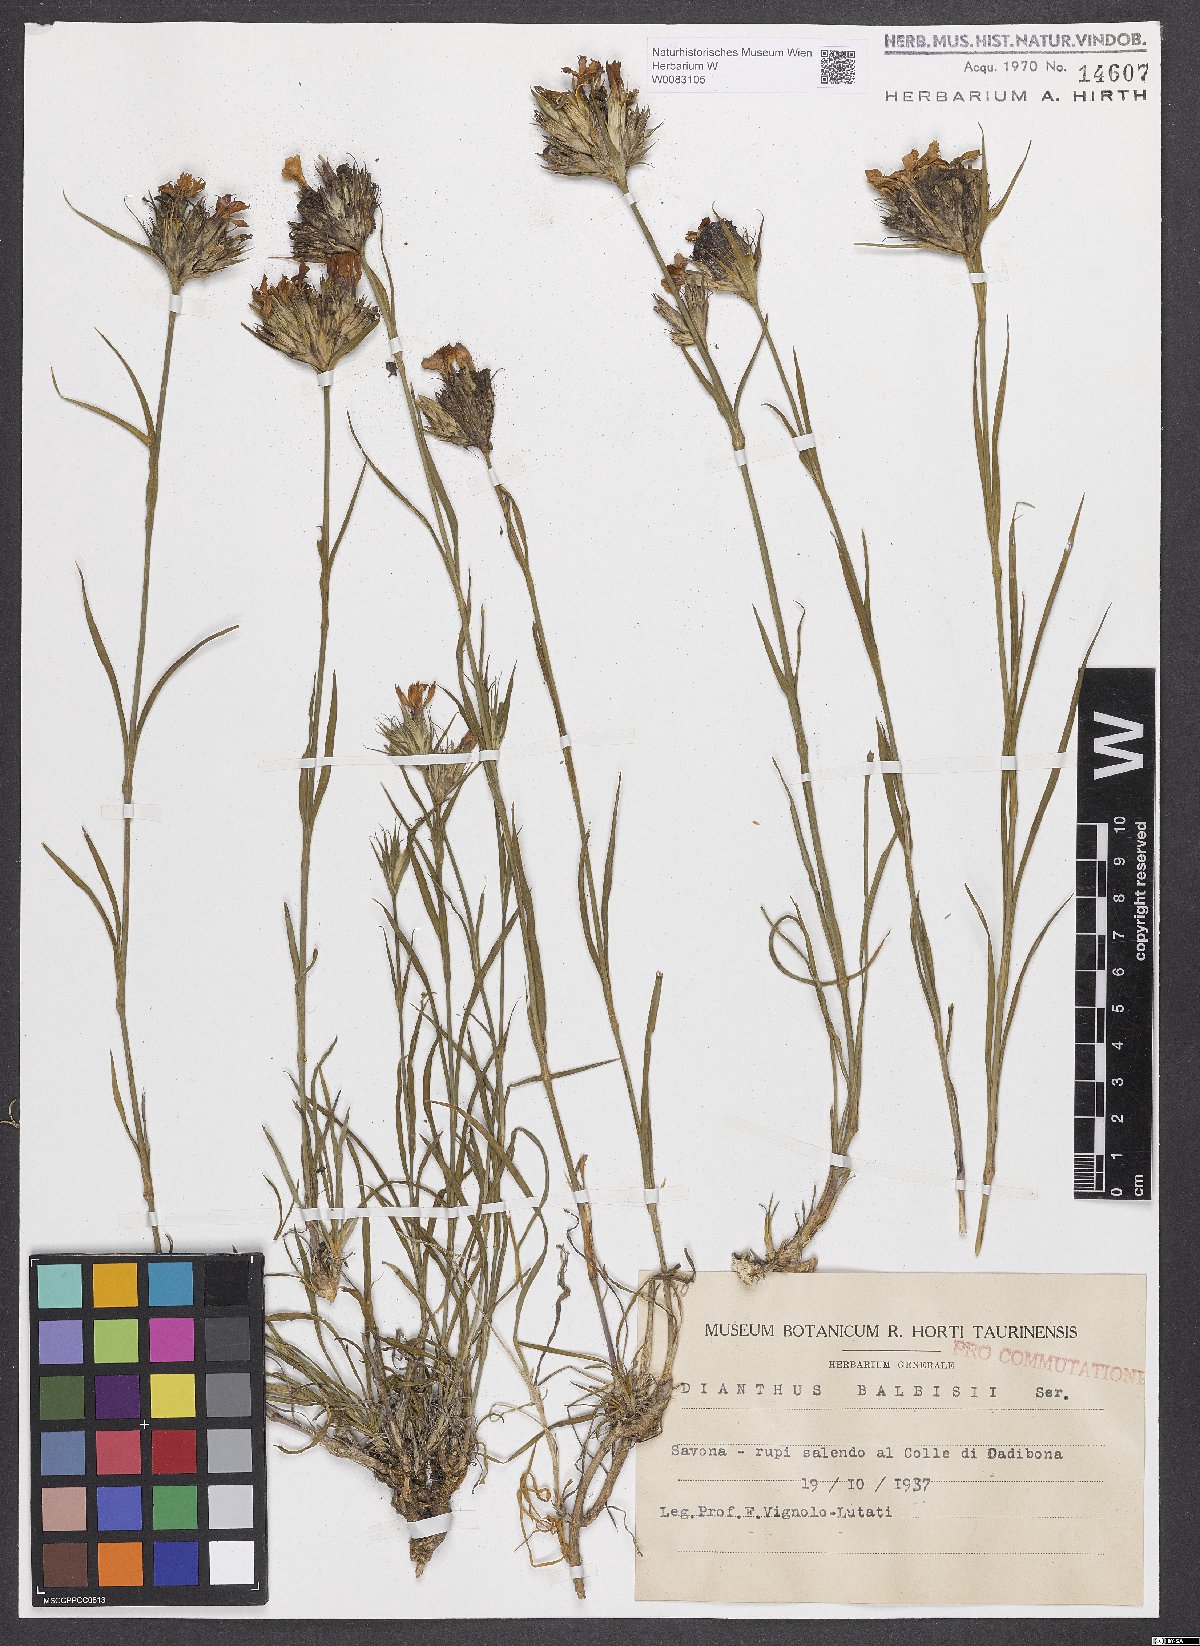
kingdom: Plantae
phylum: Tracheophyta
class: Magnoliopsida
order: Caryophyllales
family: Caryophyllaceae
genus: Dianthus
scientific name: Dianthus crassipes
